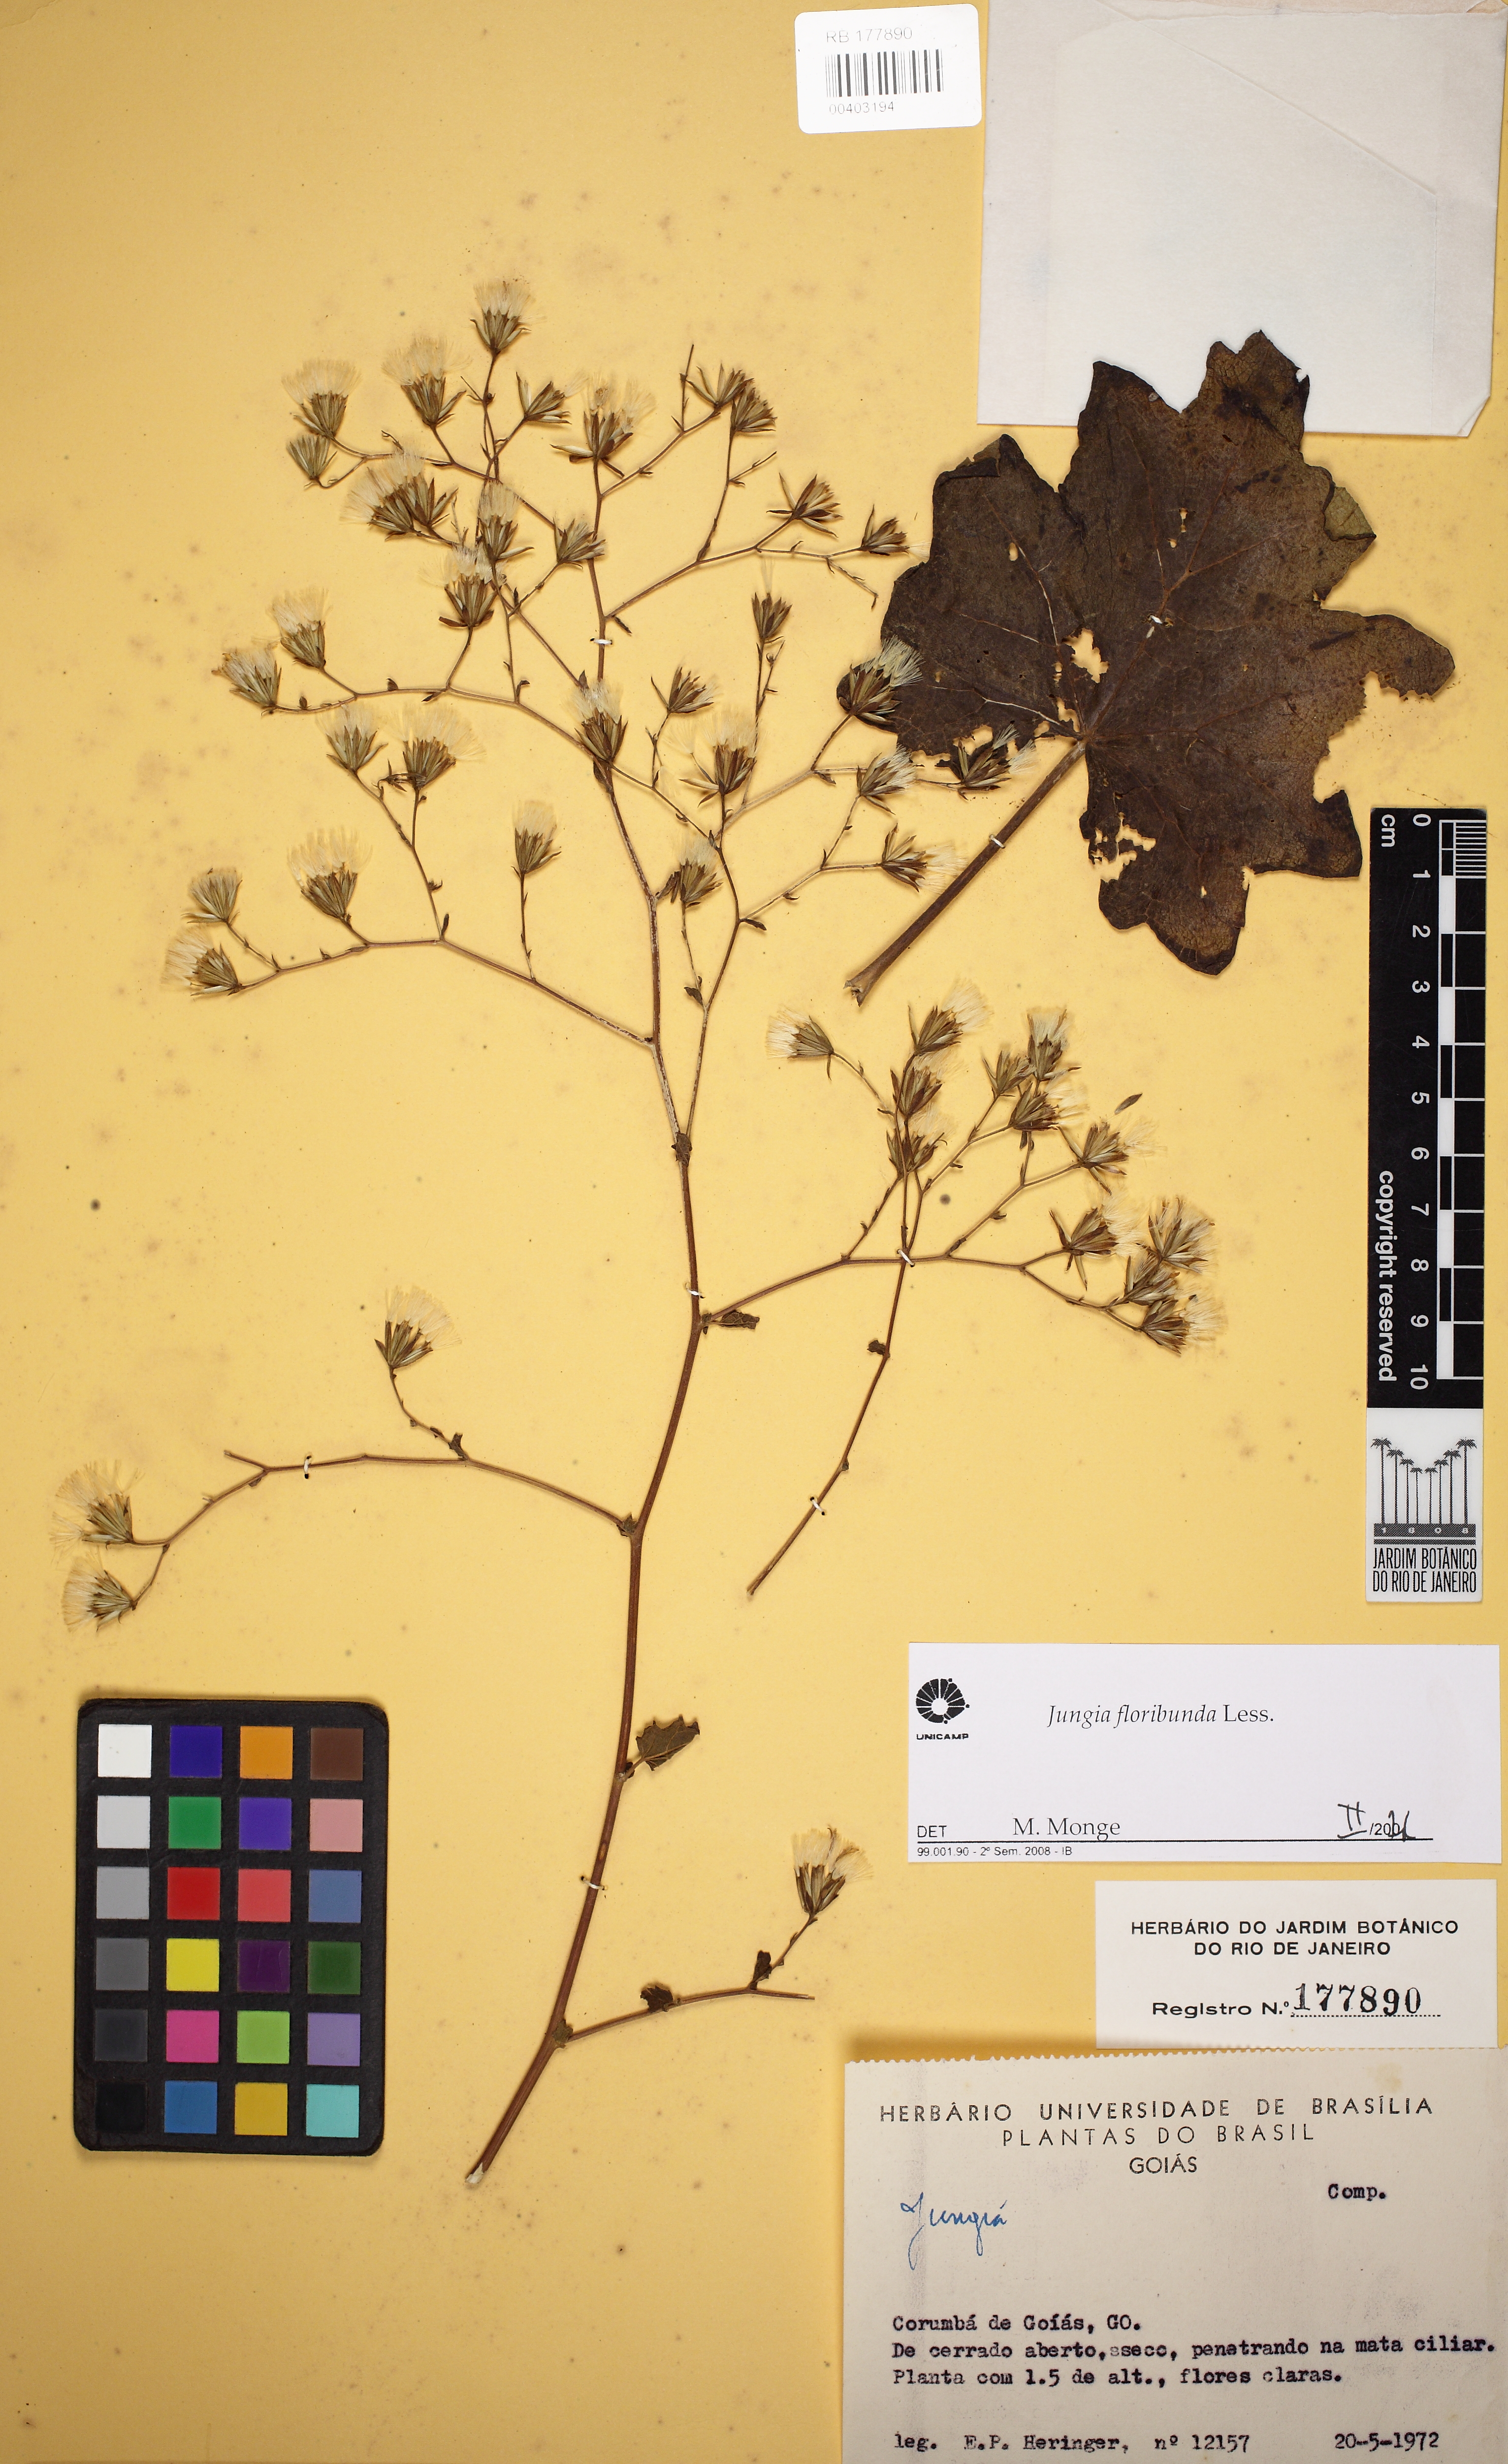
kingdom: Plantae
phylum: Tracheophyta
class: Magnoliopsida
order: Asterales
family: Asteraceae
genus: Jungia
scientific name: Jungia floribunda
